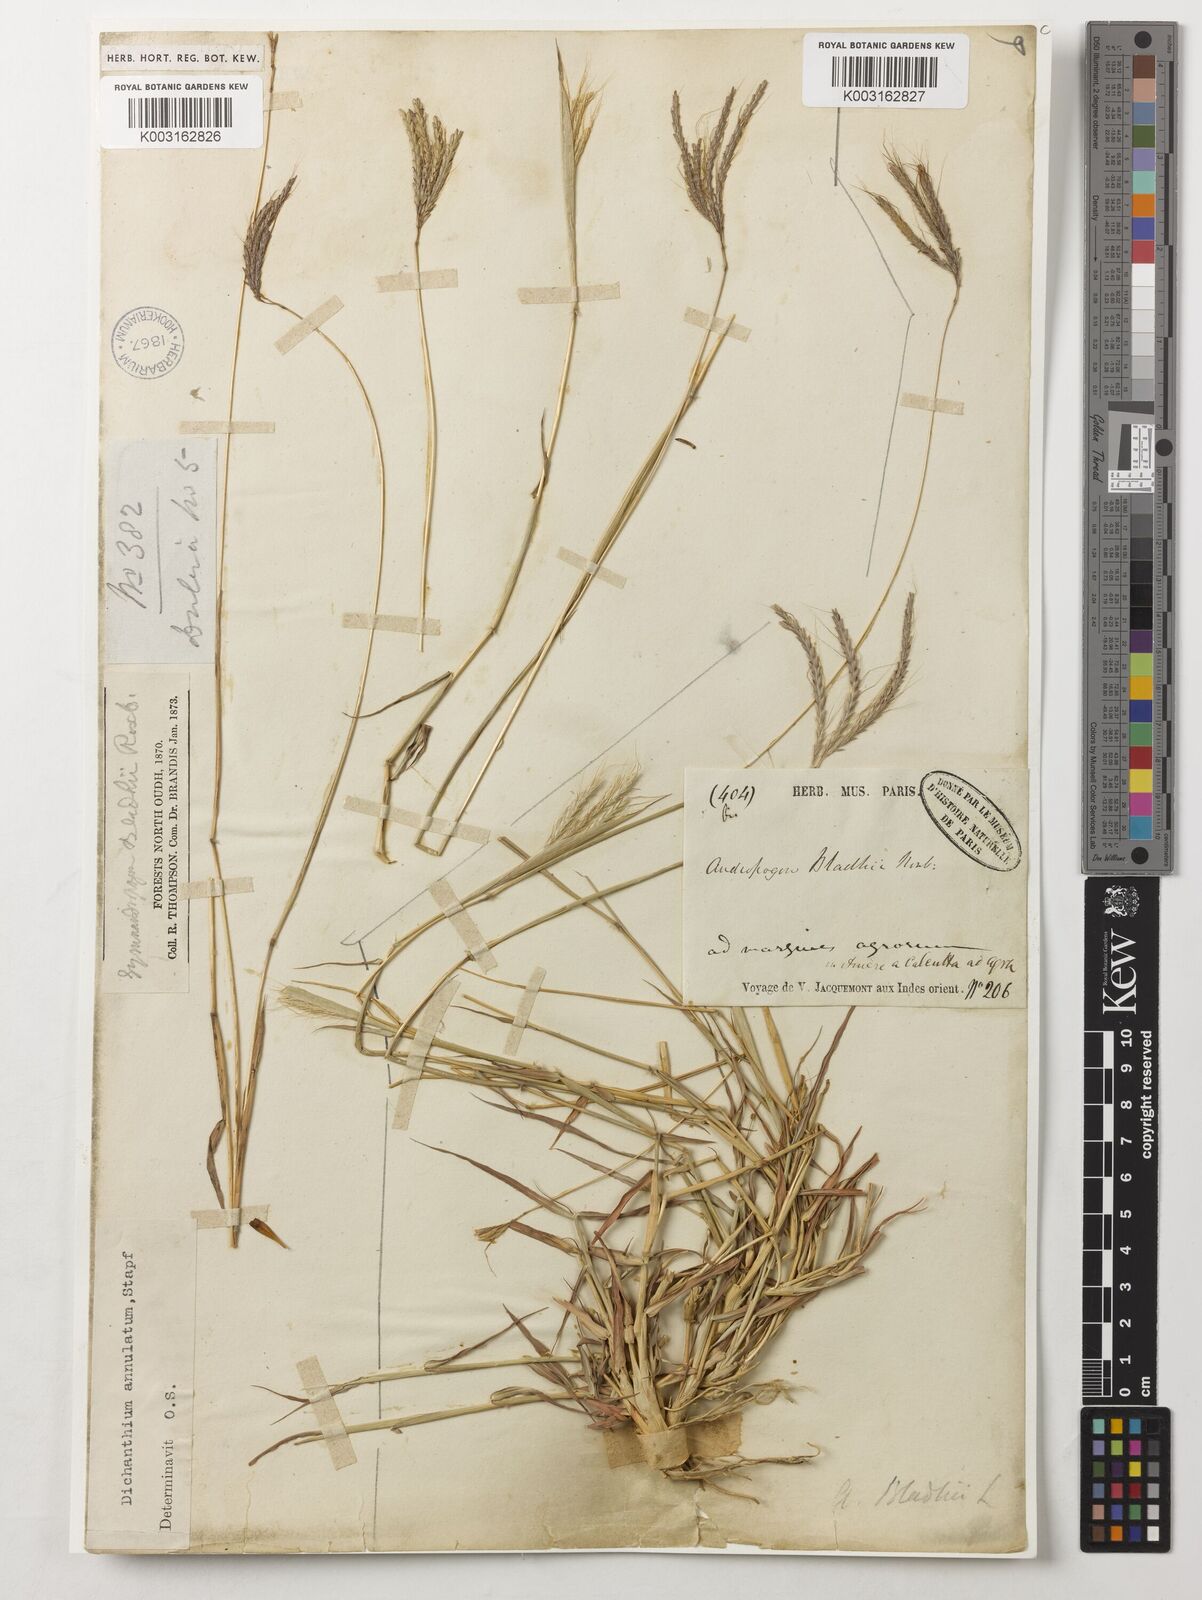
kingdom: Plantae
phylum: Tracheophyta
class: Liliopsida
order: Poales
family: Poaceae
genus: Bothriochloa
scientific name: Bothriochloa bladhii
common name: Caucasian bluestem
